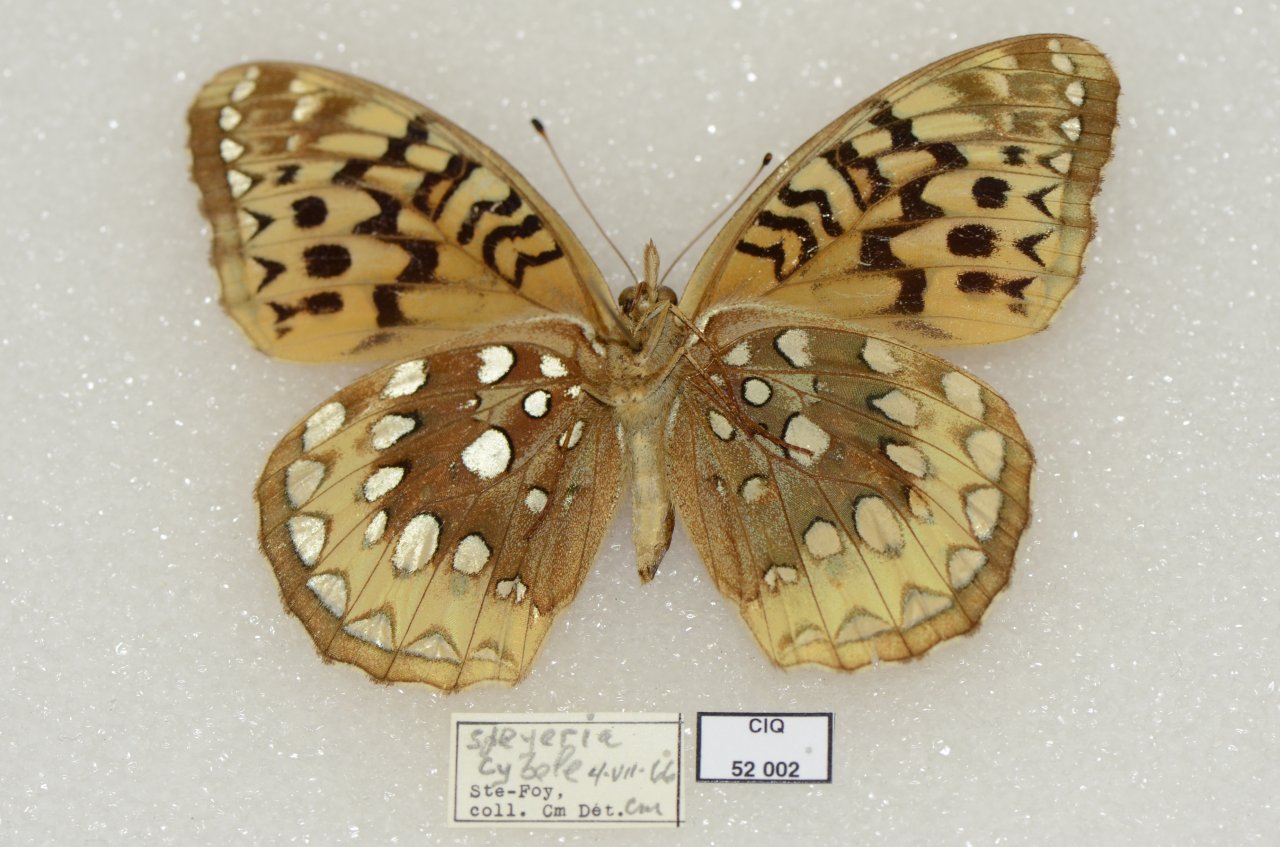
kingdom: Animalia
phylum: Arthropoda
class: Insecta
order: Lepidoptera
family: Nymphalidae
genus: Speyeria
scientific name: Speyeria cybele
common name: Great Spangled Fritillary
